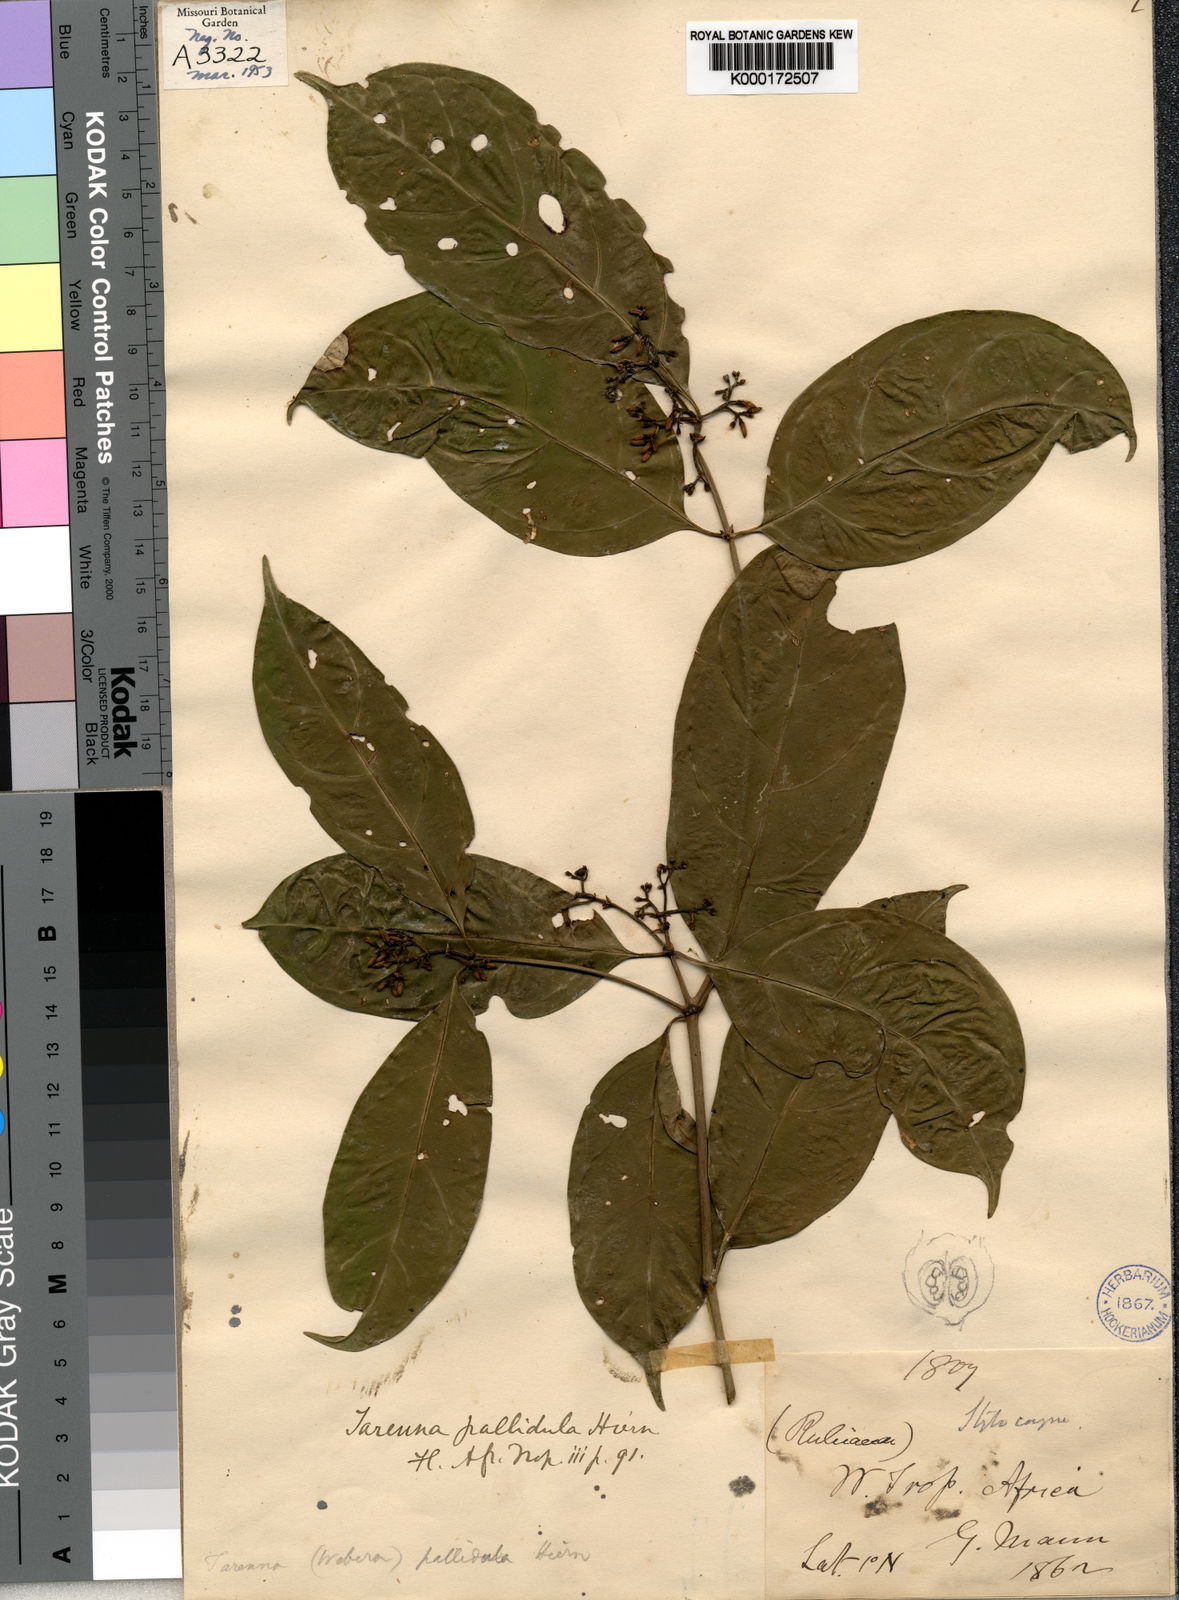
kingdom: Plantae
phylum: Tracheophyta
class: Magnoliopsida
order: Gentianales
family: Rubiaceae
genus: Tarenna
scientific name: Tarenna pallidula
